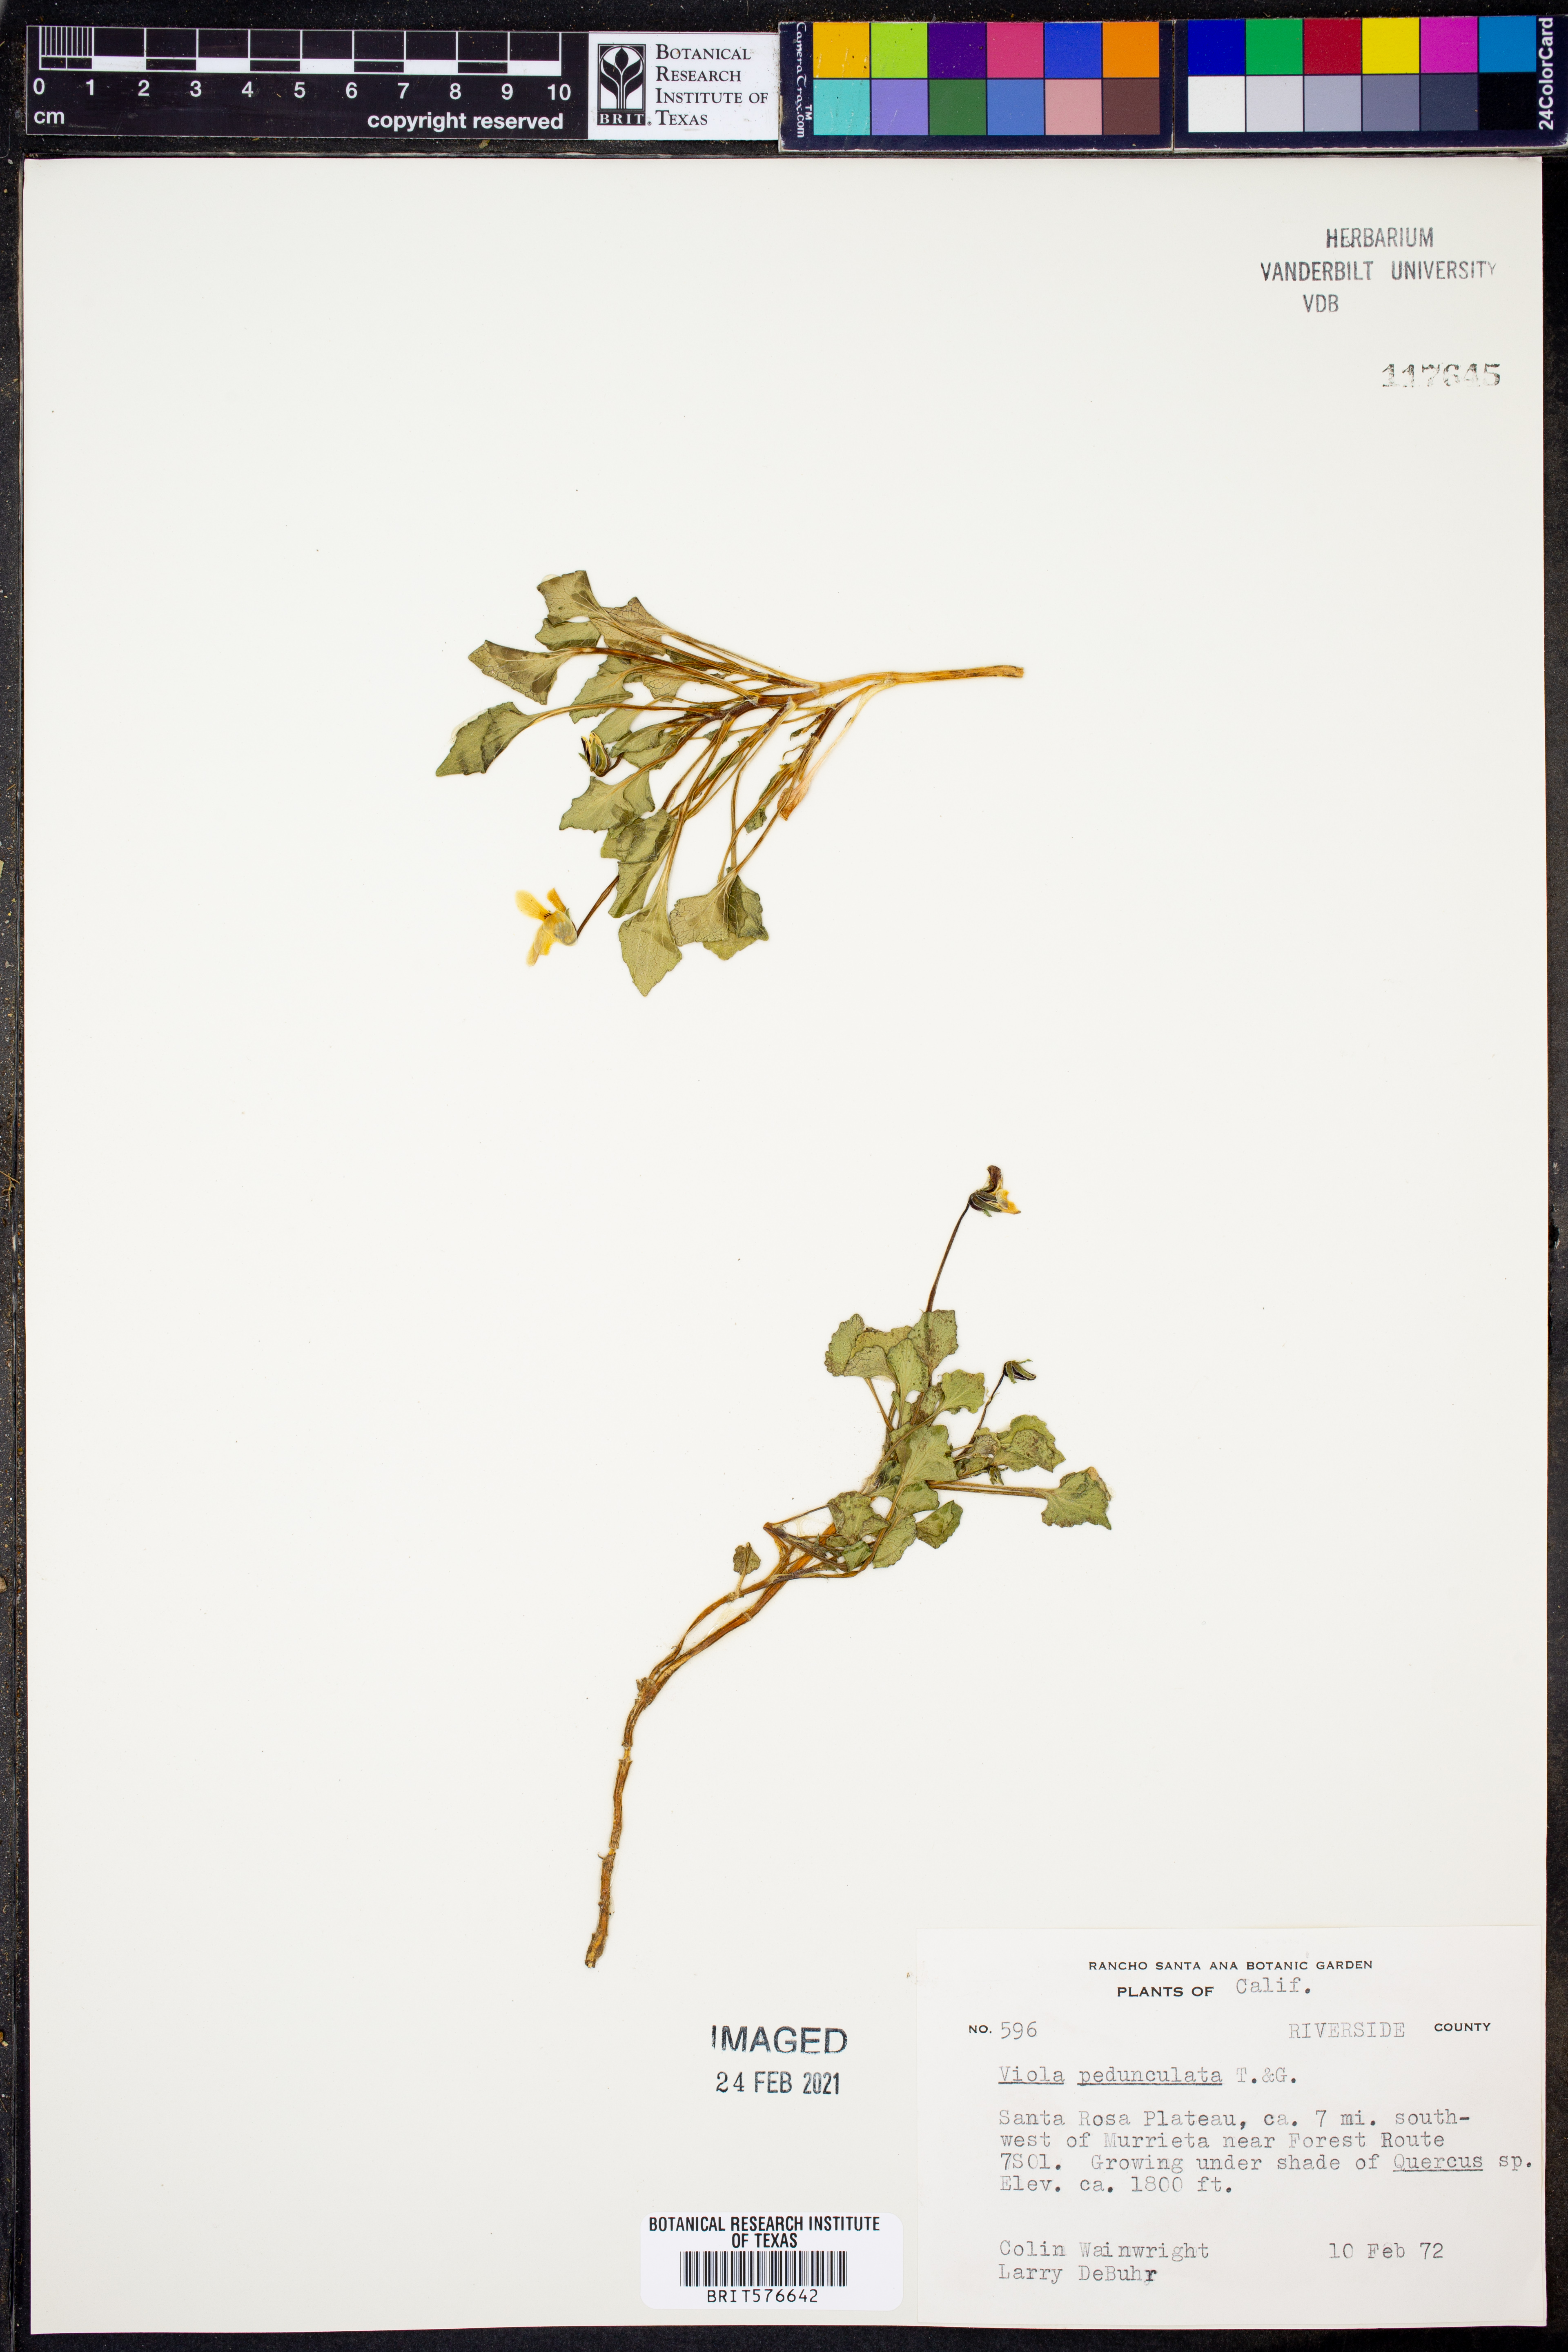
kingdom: Plantae
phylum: Tracheophyta
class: Magnoliopsida
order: Malpighiales
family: Violaceae
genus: Viola
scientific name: Viola pedunculata
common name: California golden violet
